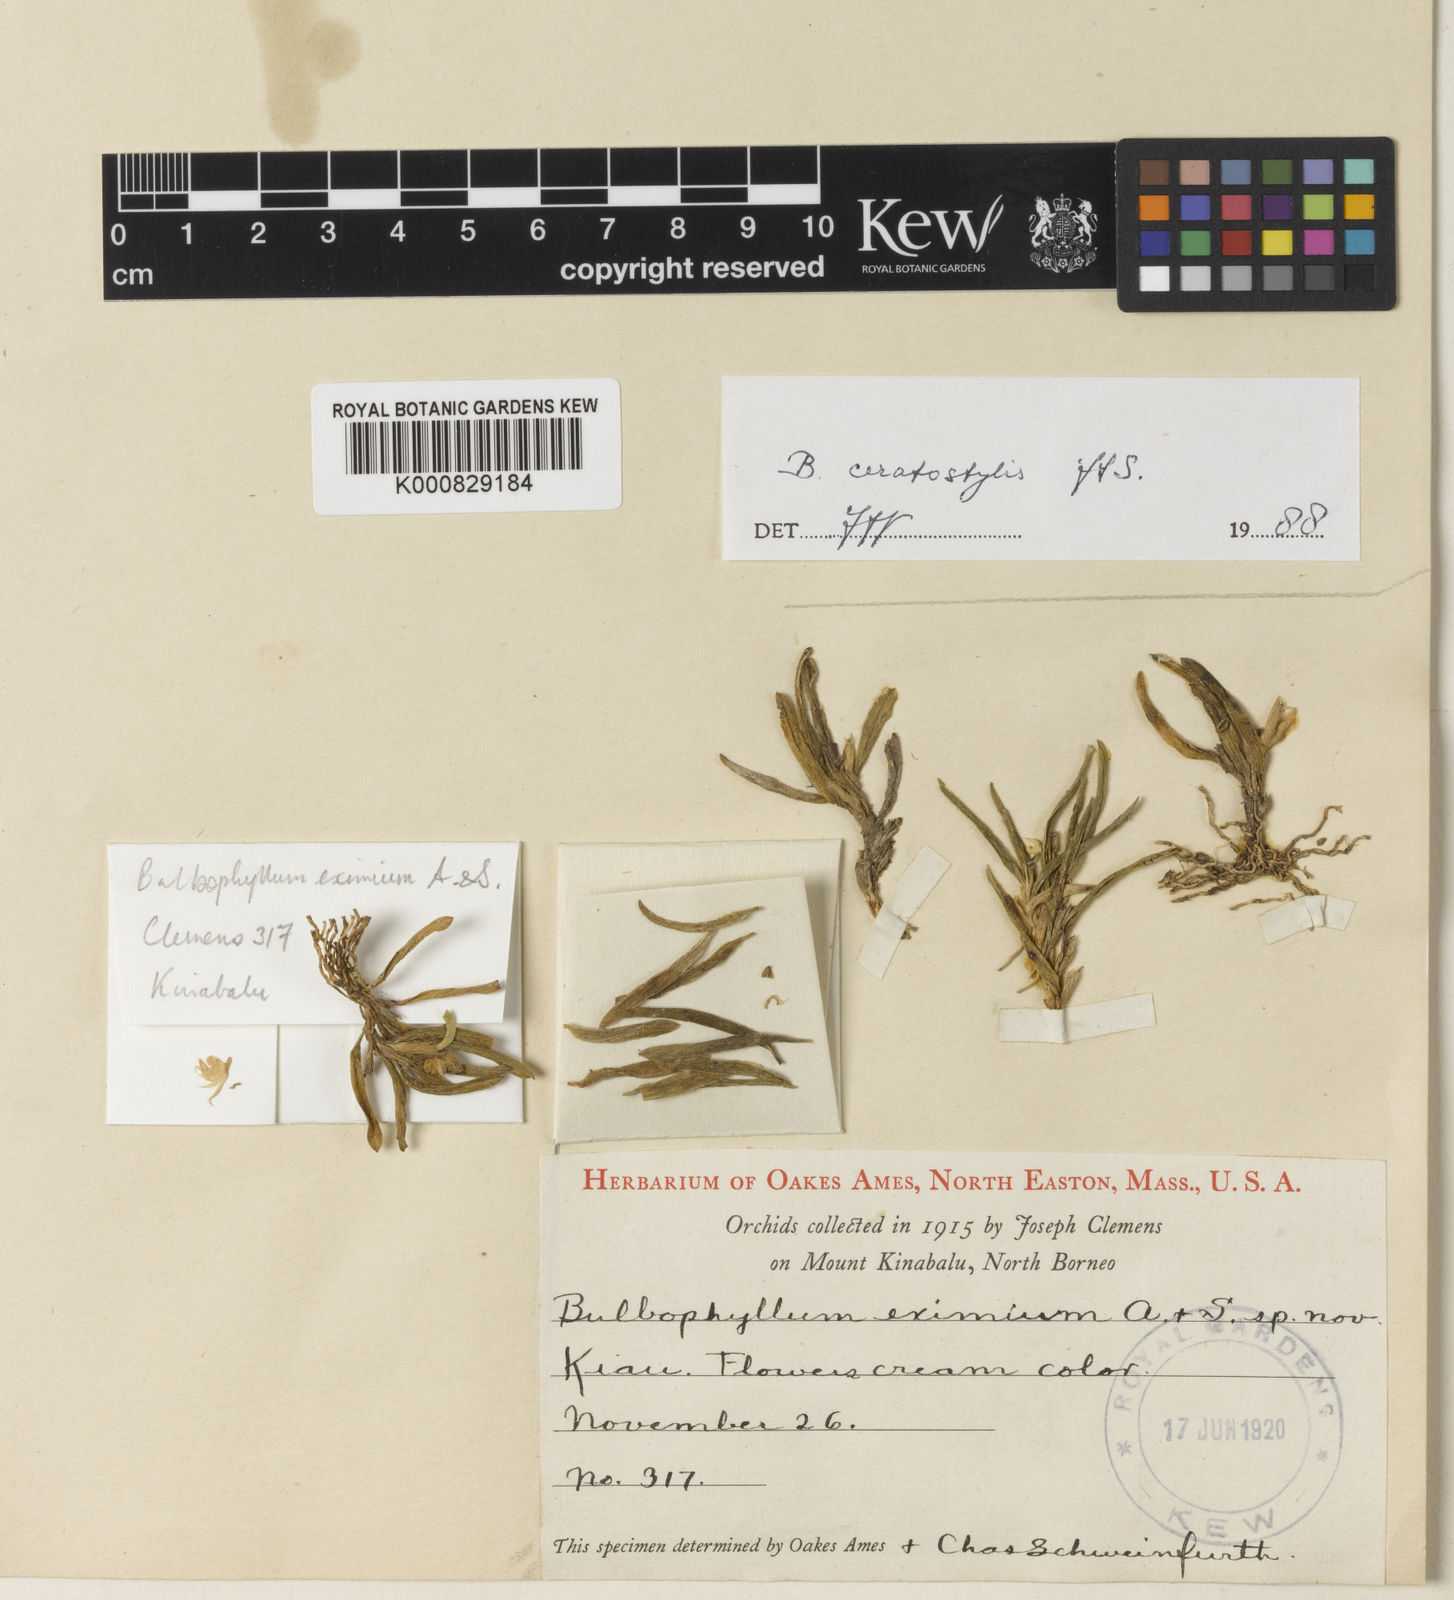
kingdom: Plantae
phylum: Tracheophyta
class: Liliopsida
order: Asparagales
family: Orchidaceae
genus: Bulbophyllum
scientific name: Bulbophyllum ceratostylis
